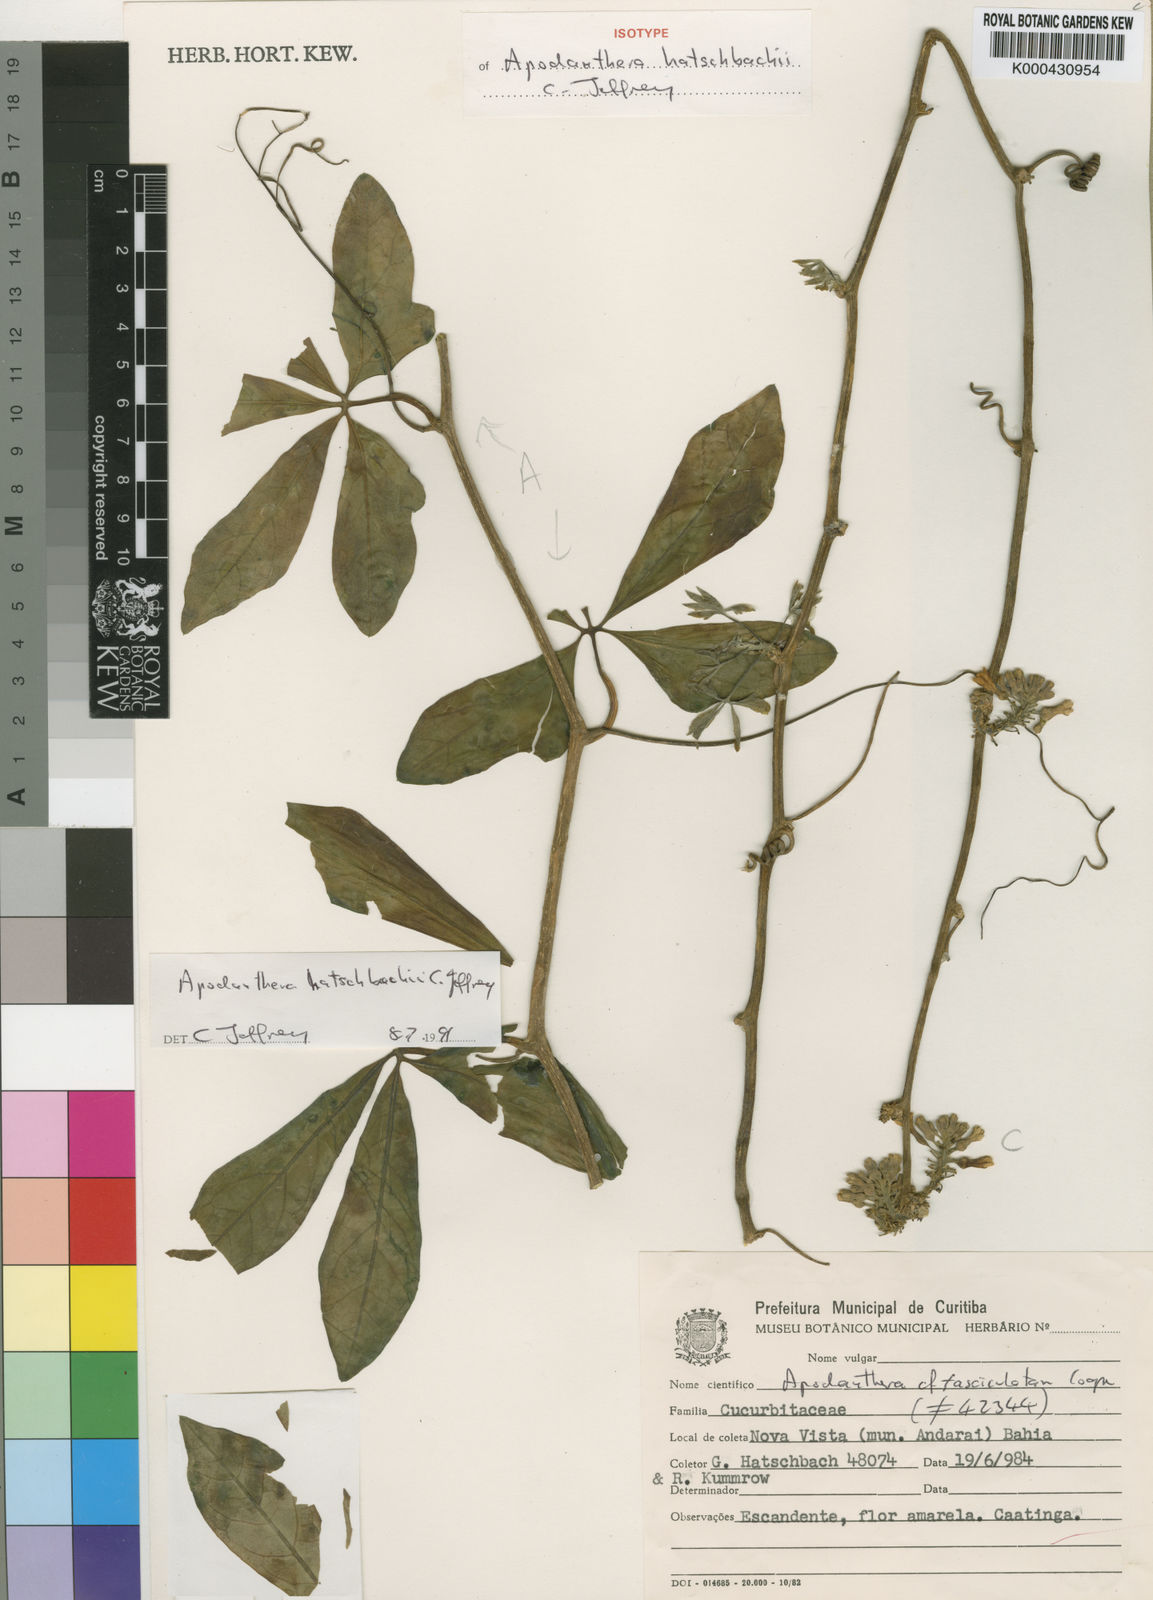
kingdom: Plantae
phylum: Tracheophyta
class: Magnoliopsida
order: Cucurbitales
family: Cucurbitaceae
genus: Apodanthera
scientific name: Apodanthera bradei
